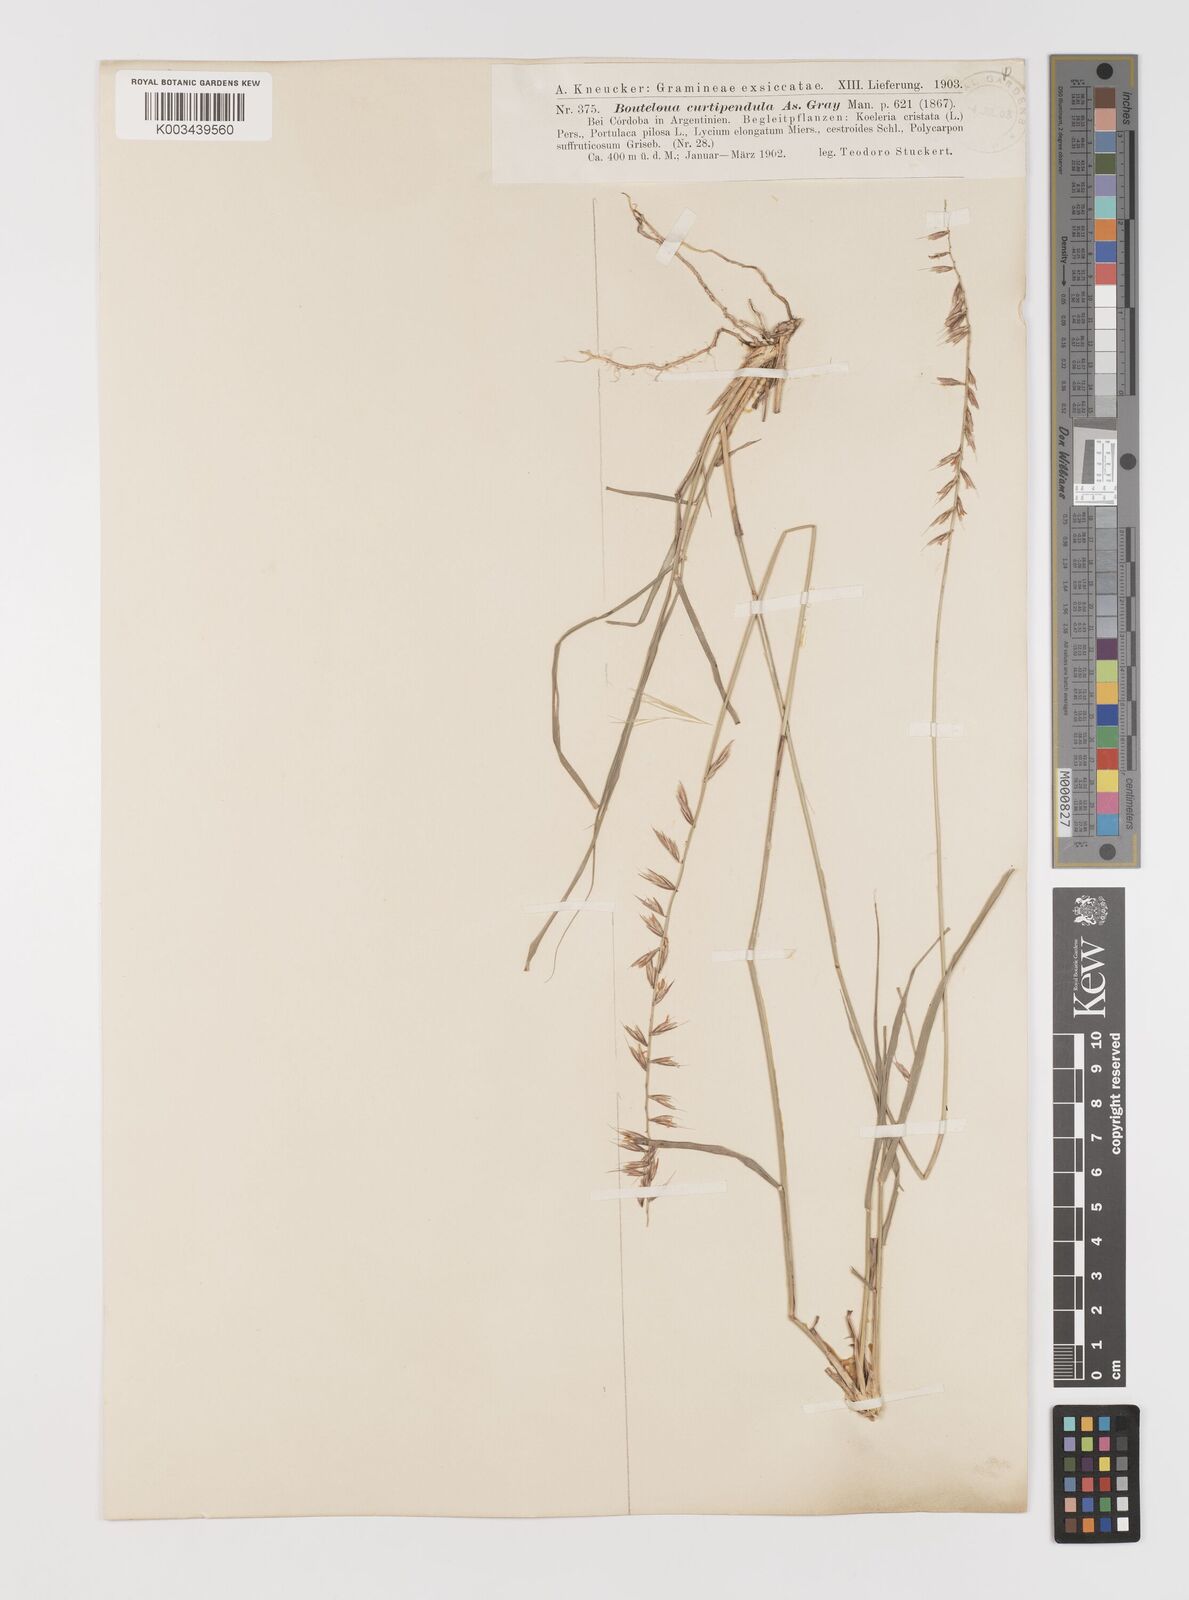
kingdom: Plantae
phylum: Tracheophyta
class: Liliopsida
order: Poales
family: Poaceae
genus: Bouteloua
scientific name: Bouteloua curtipendula
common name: Side-oats grama
